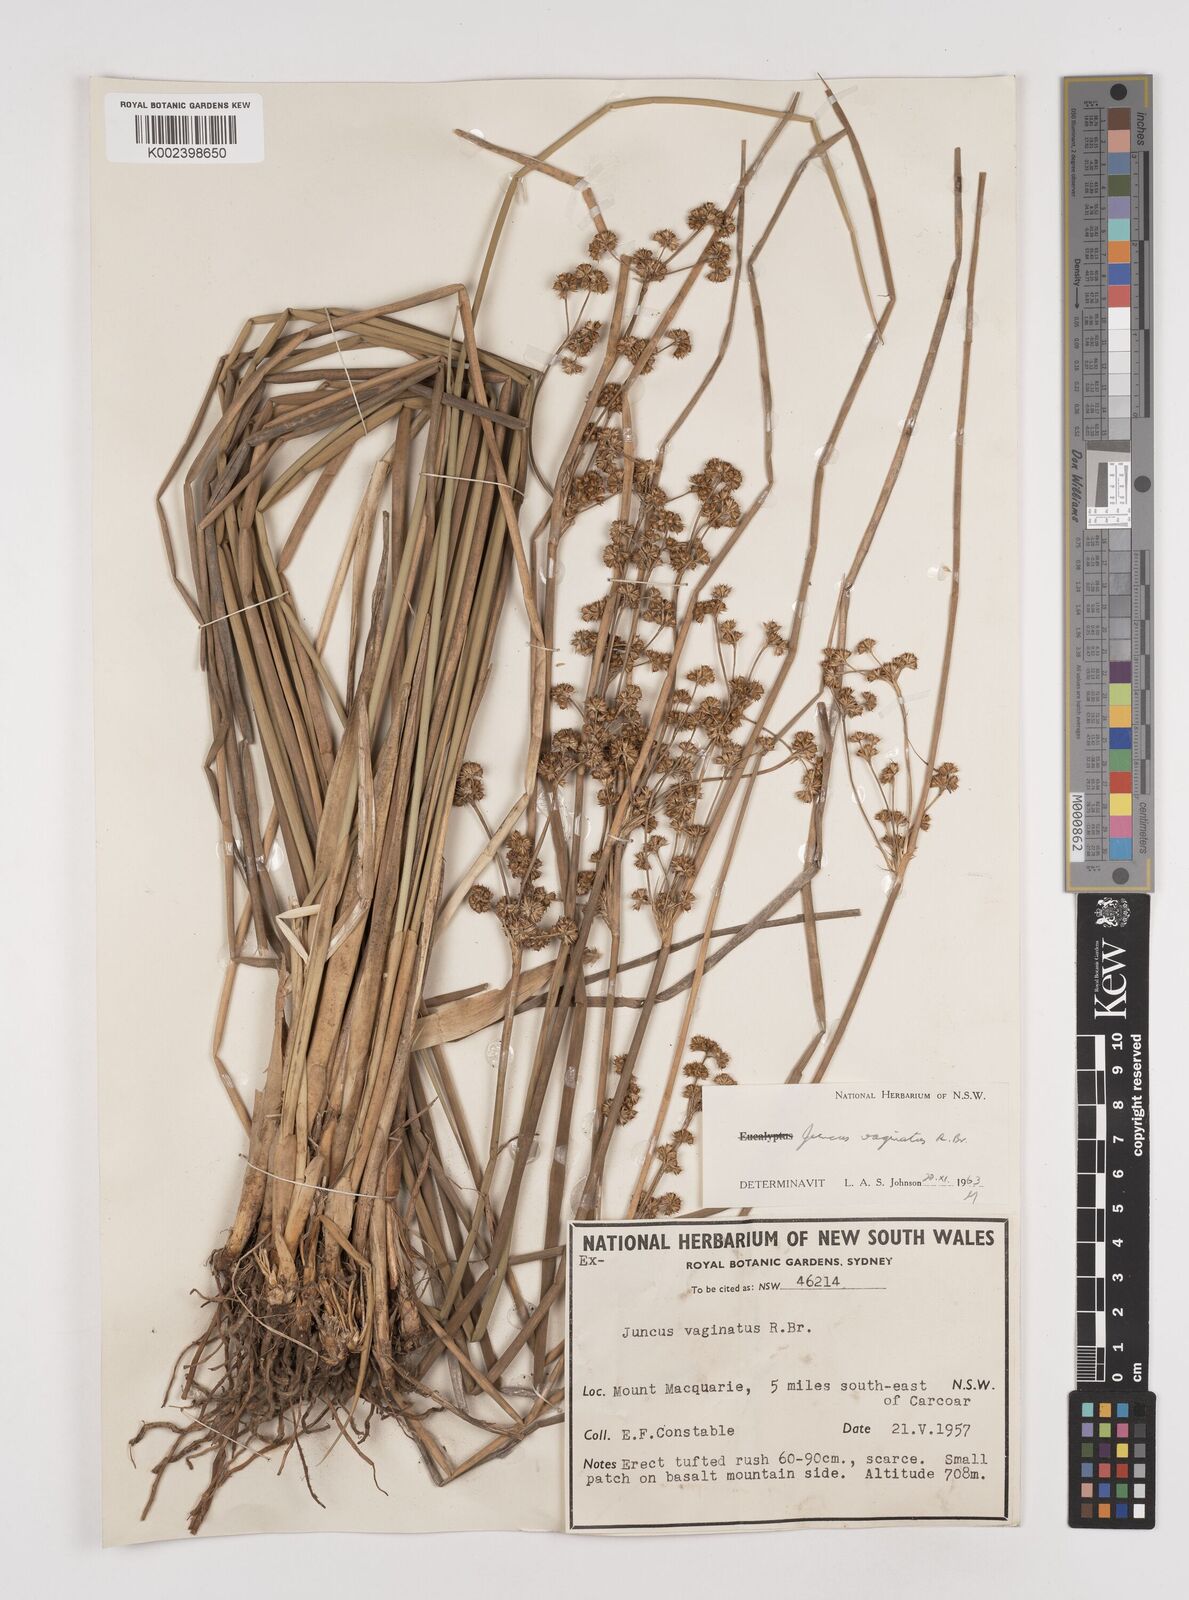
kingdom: Plantae
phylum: Tracheophyta
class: Liliopsida
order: Poales
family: Juncaceae
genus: Juncus
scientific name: Juncus vaginatus
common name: Clustered rush
